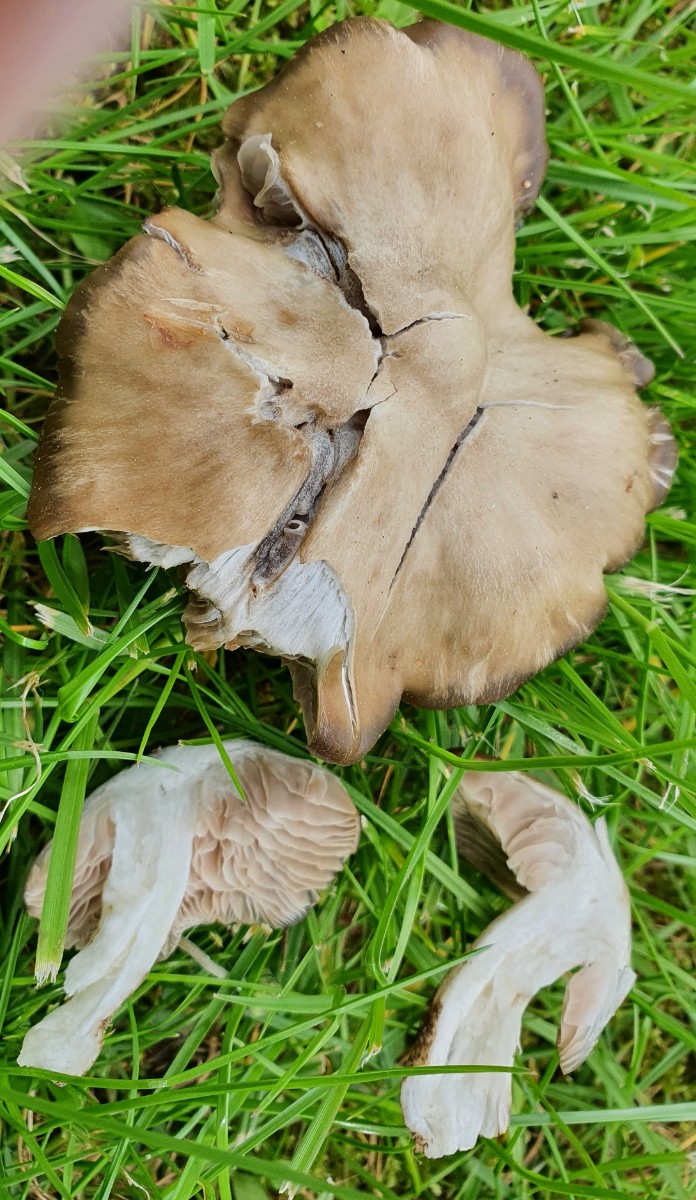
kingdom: Fungi
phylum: Basidiomycota
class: Agaricomycetes
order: Agaricales
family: Entolomataceae
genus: Entoloma
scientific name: Entoloma clypeatum
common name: flammet rødblad
